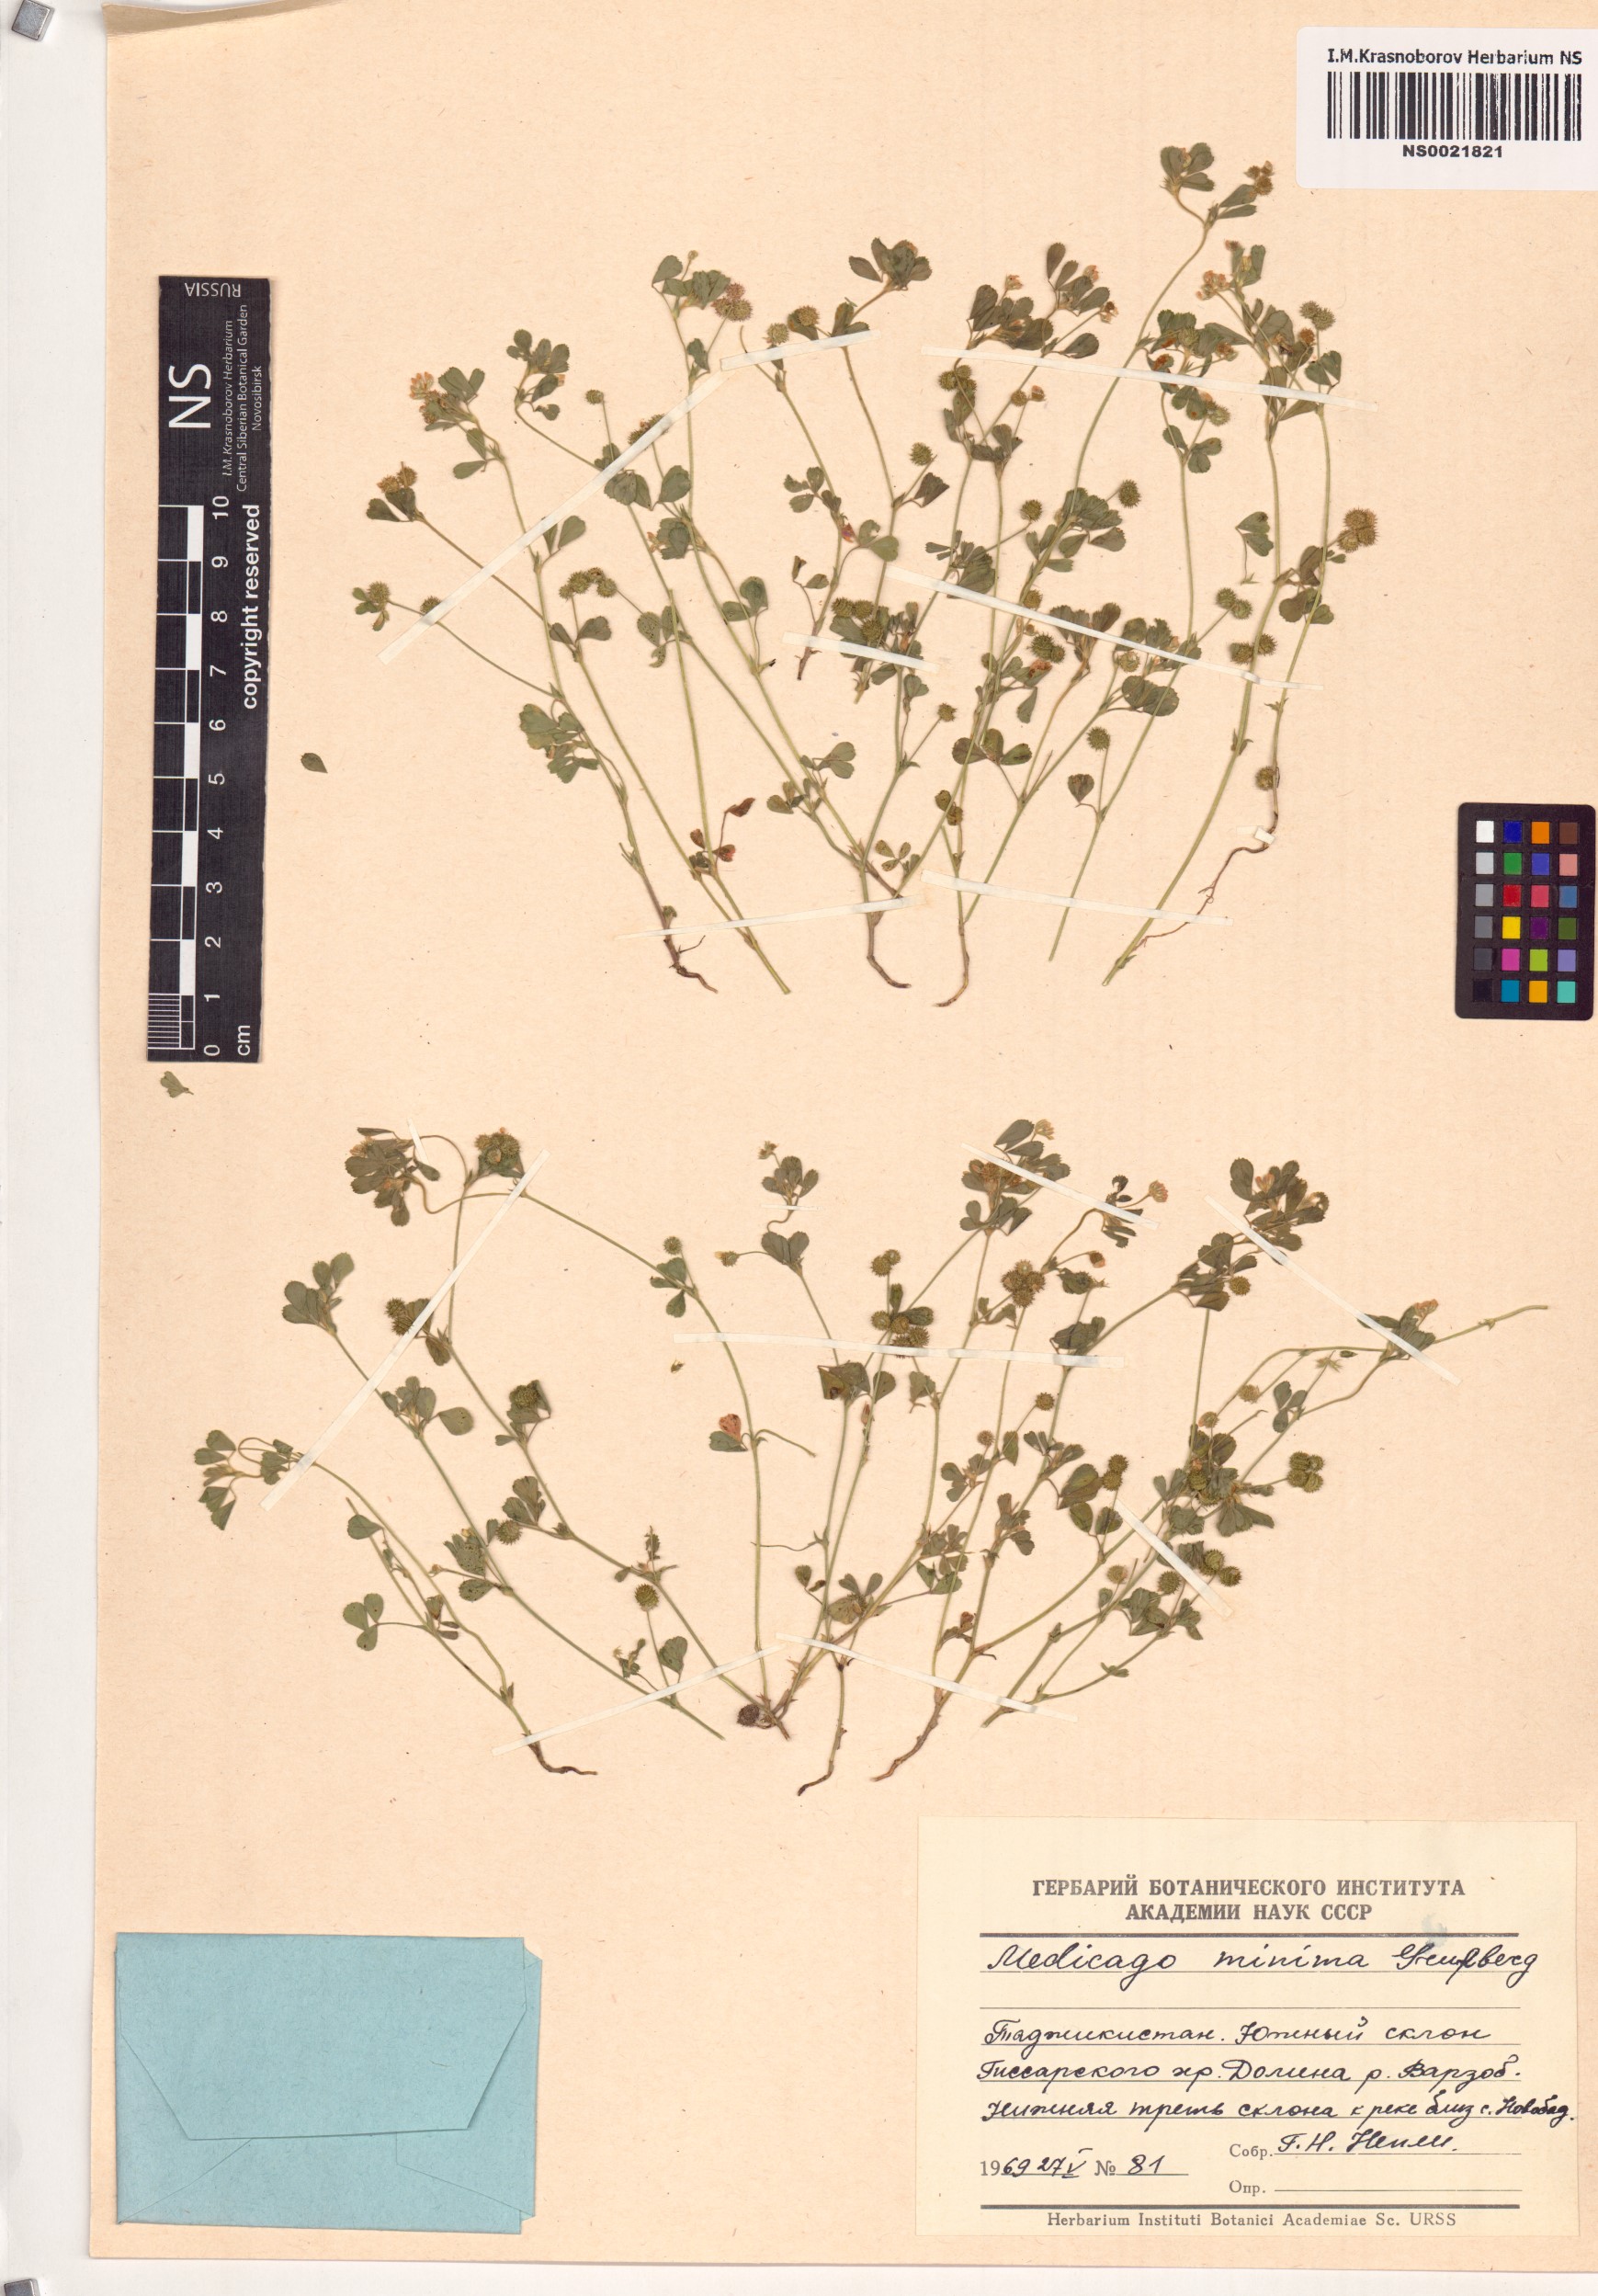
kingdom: Plantae
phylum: Tracheophyta
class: Magnoliopsida
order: Fabales
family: Fabaceae
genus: Medicago
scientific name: Medicago minima
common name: Little bur-clover
